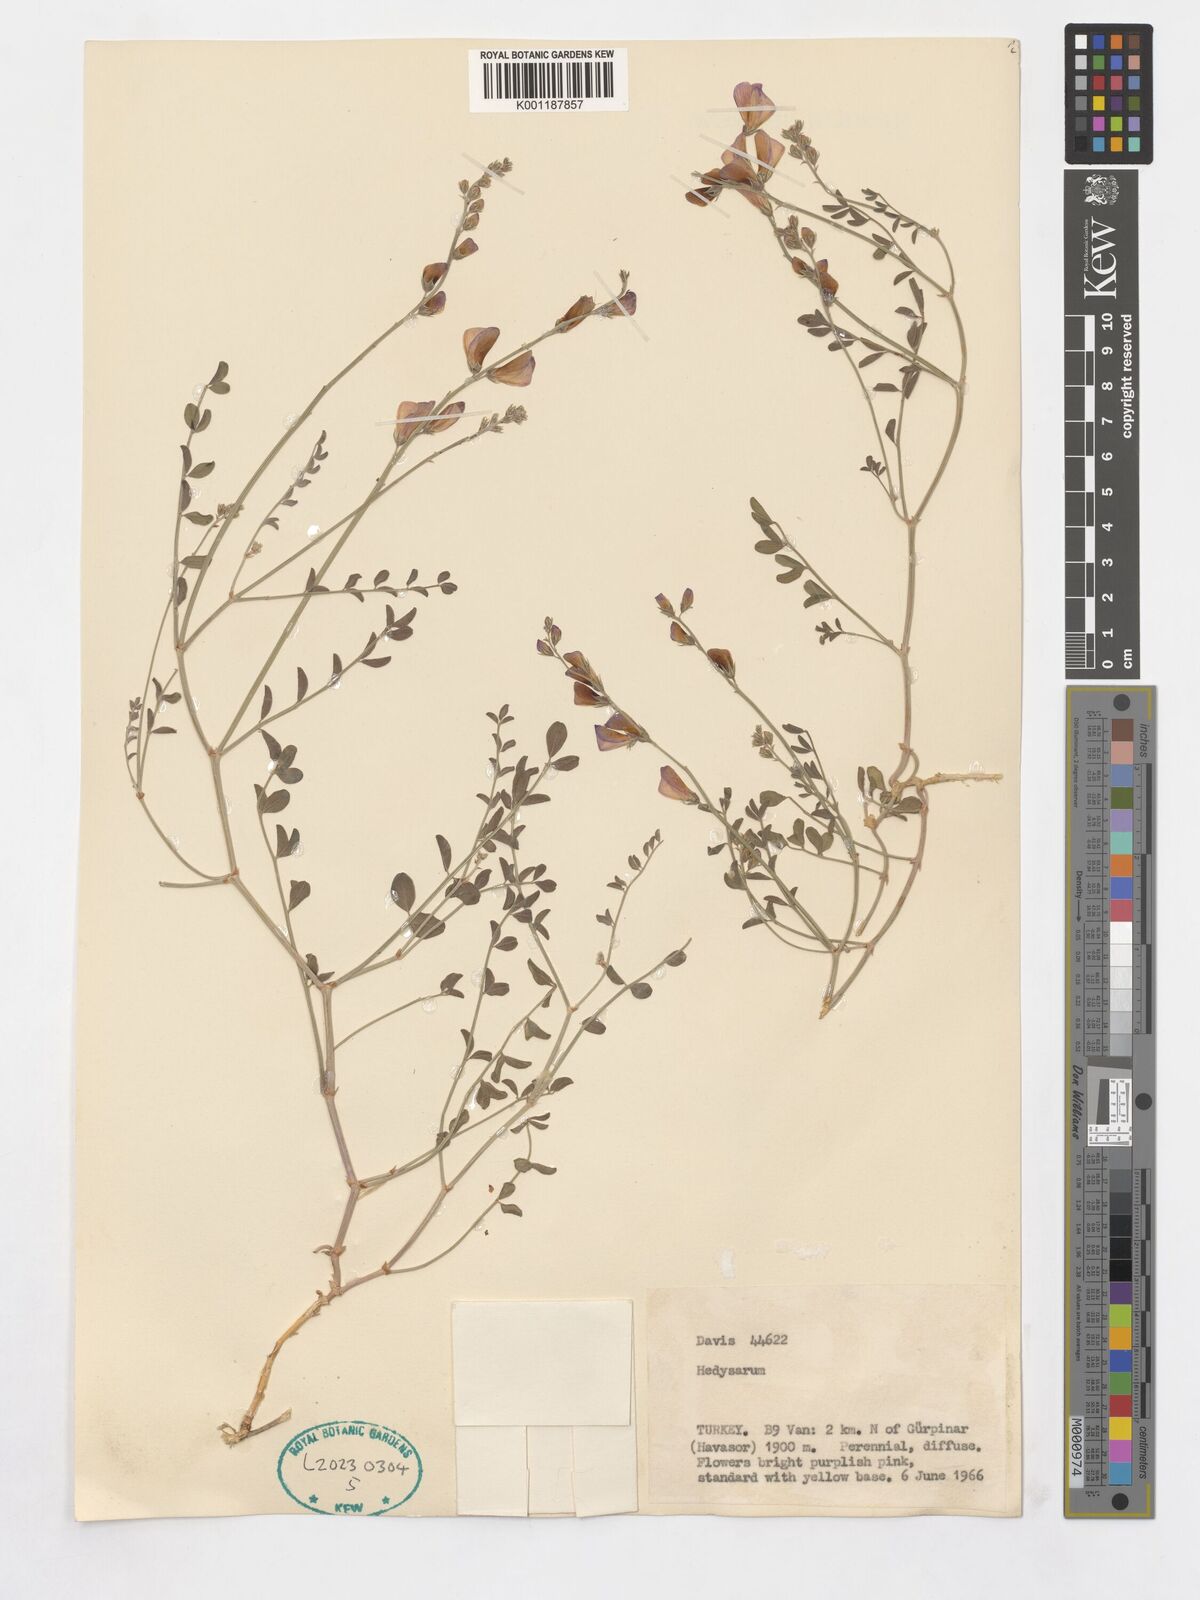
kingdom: Plantae
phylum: Tracheophyta
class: Magnoliopsida
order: Fabales
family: Fabaceae
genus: Hedysarum
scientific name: Hedysarum
